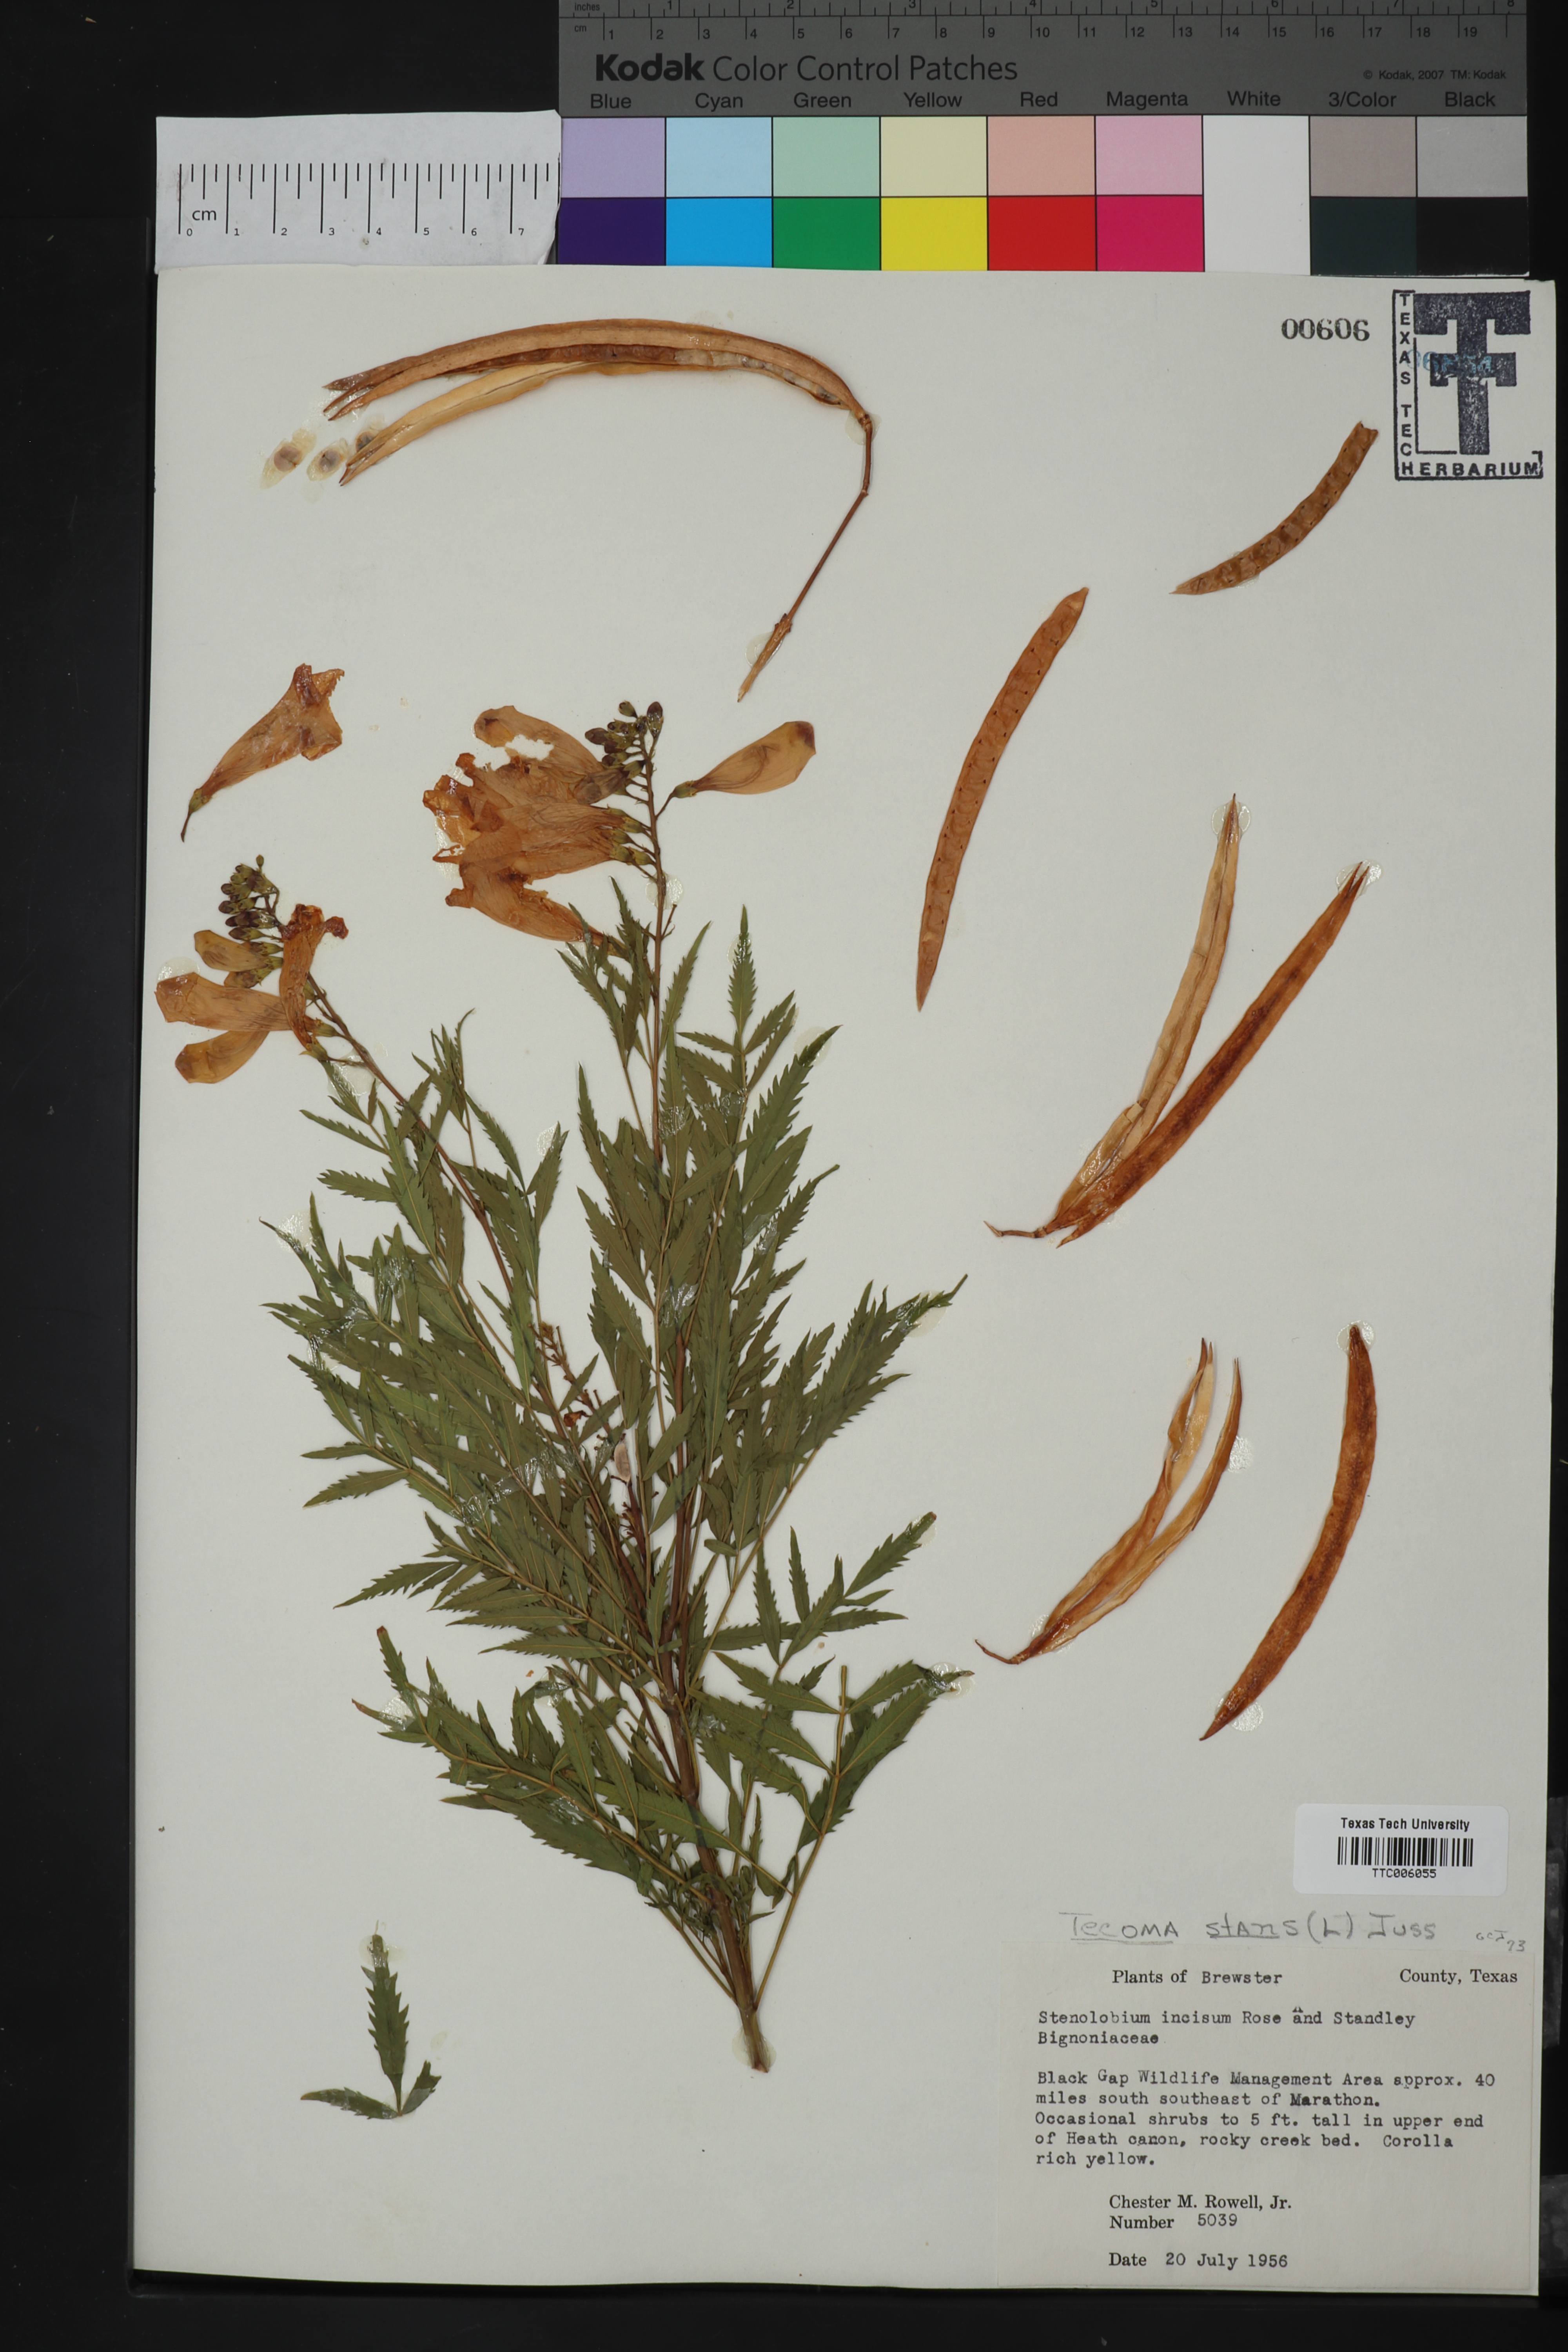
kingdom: Plantae
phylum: Tracheophyta
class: Magnoliopsida
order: Lamiales
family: Bignoniaceae
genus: Tecoma
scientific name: Tecoma stans
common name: Yellow trumpetbush
